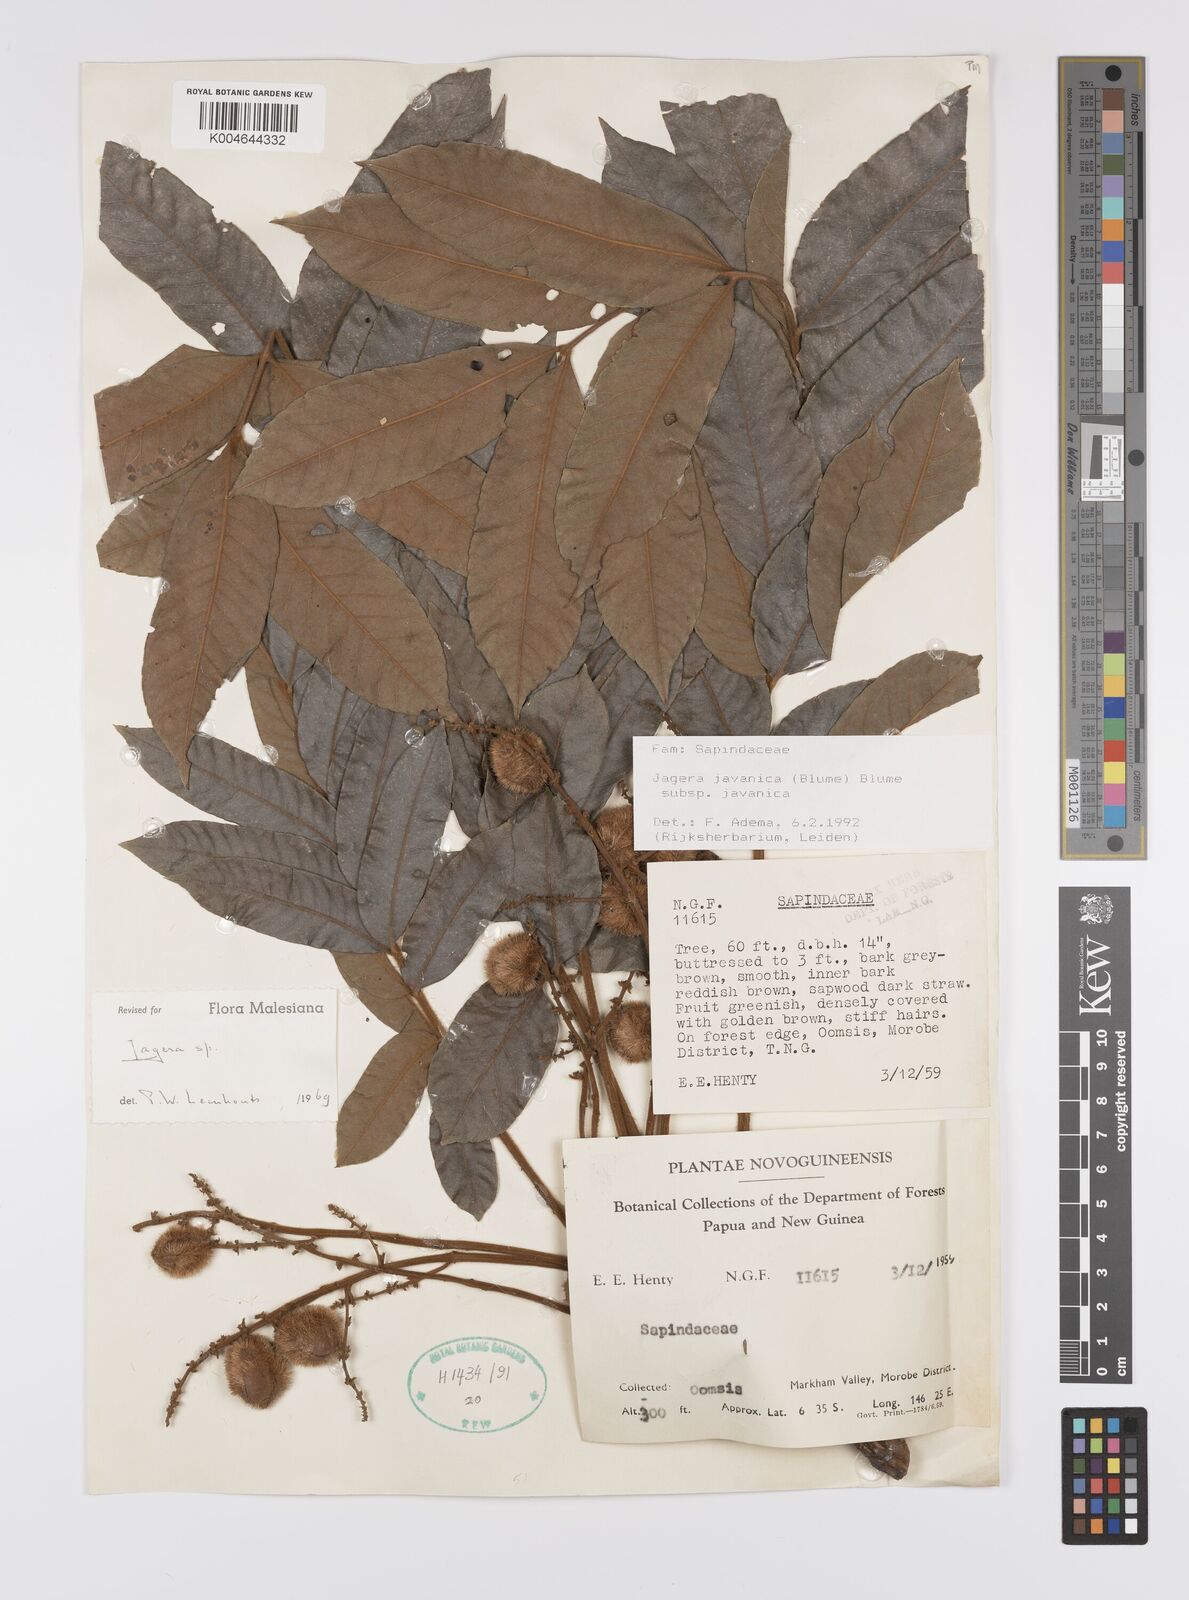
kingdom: Plantae
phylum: Tracheophyta
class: Magnoliopsida
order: Sapindales
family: Sapindaceae
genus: Jagera
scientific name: Jagera javanica
